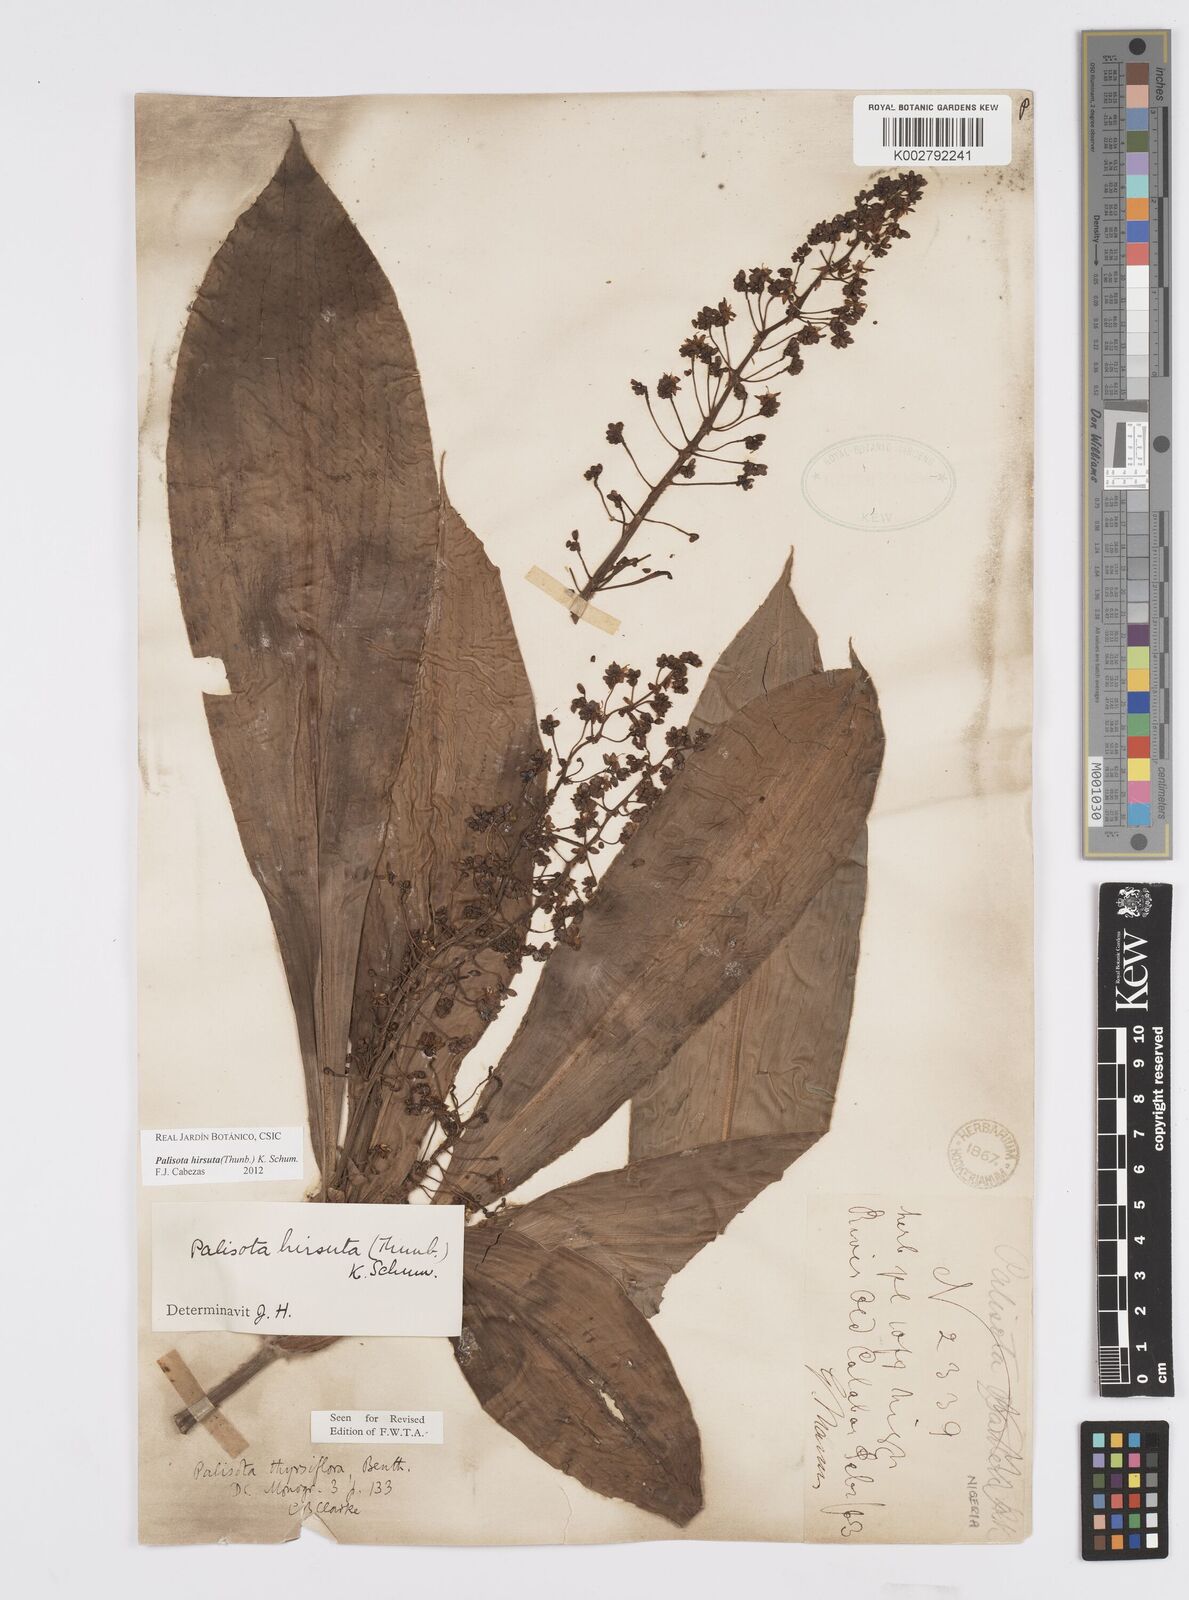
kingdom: Plantae
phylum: Tracheophyta
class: Liliopsida
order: Commelinales
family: Commelinaceae
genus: Palisota
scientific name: Palisota hirsuta
